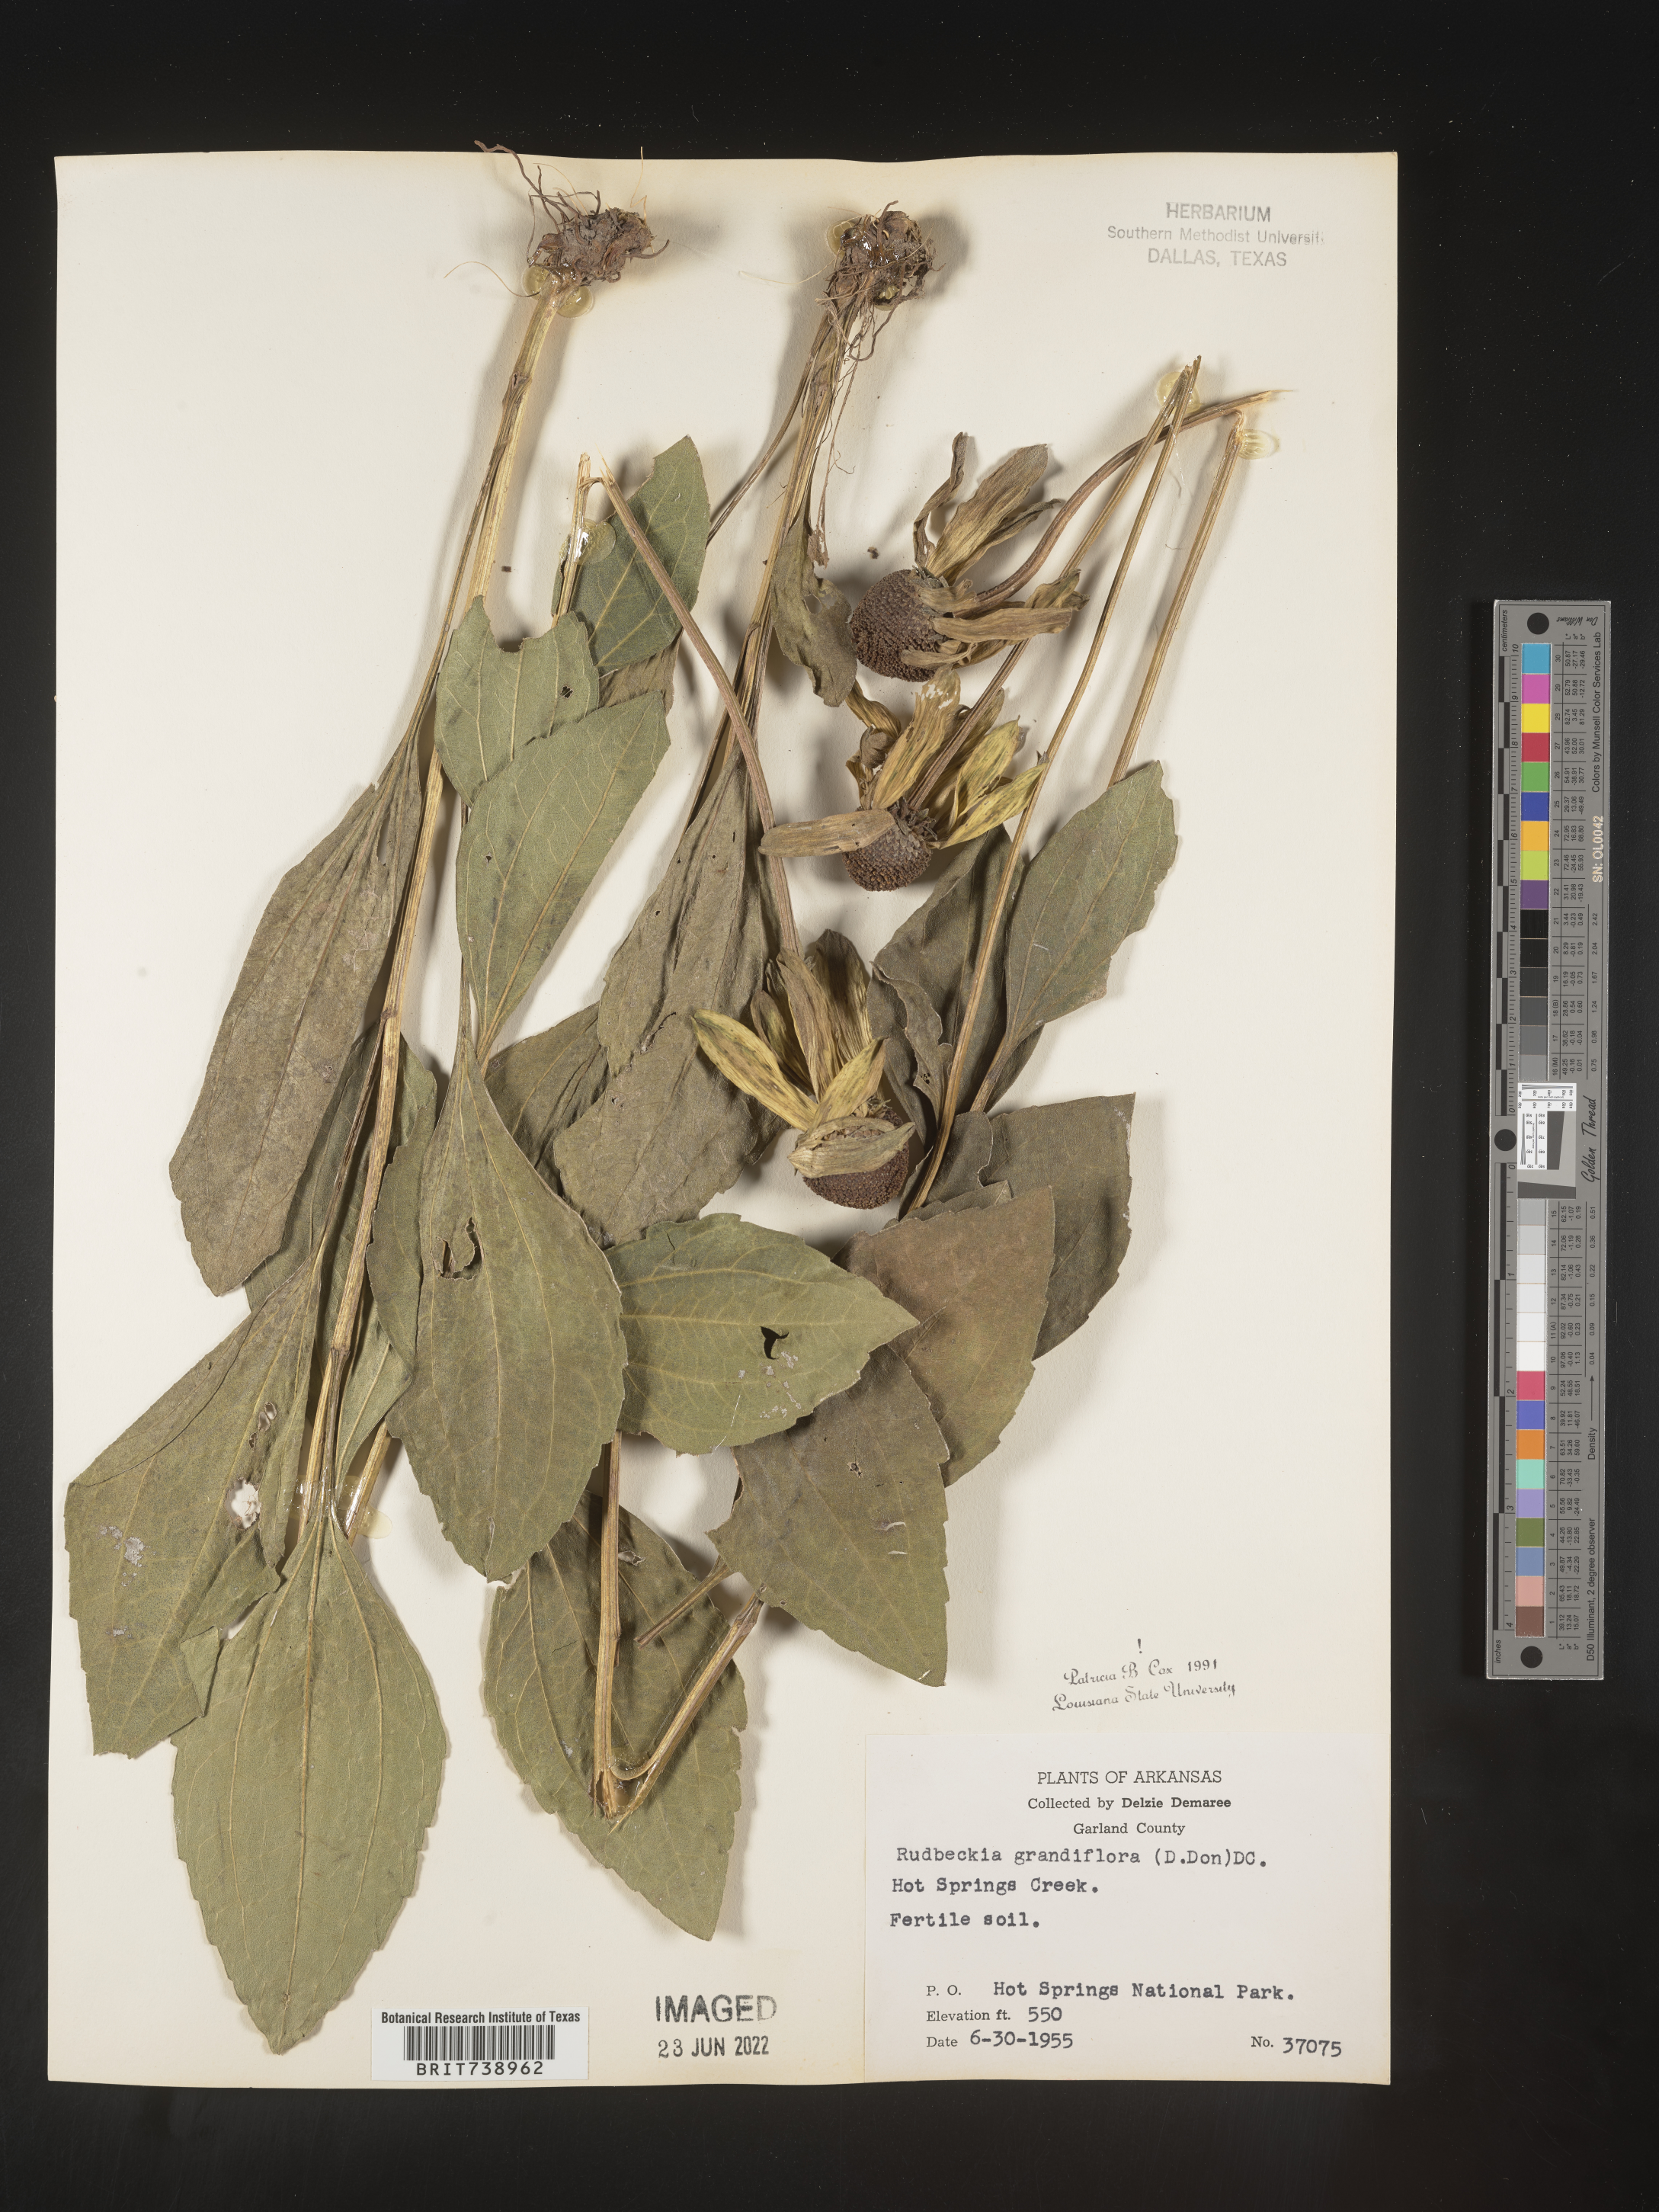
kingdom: Plantae
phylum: Tracheophyta
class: Magnoliopsida
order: Asterales
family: Asteraceae
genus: Rudbeckia
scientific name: Rudbeckia grandiflora
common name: Large-flowered coneflower
